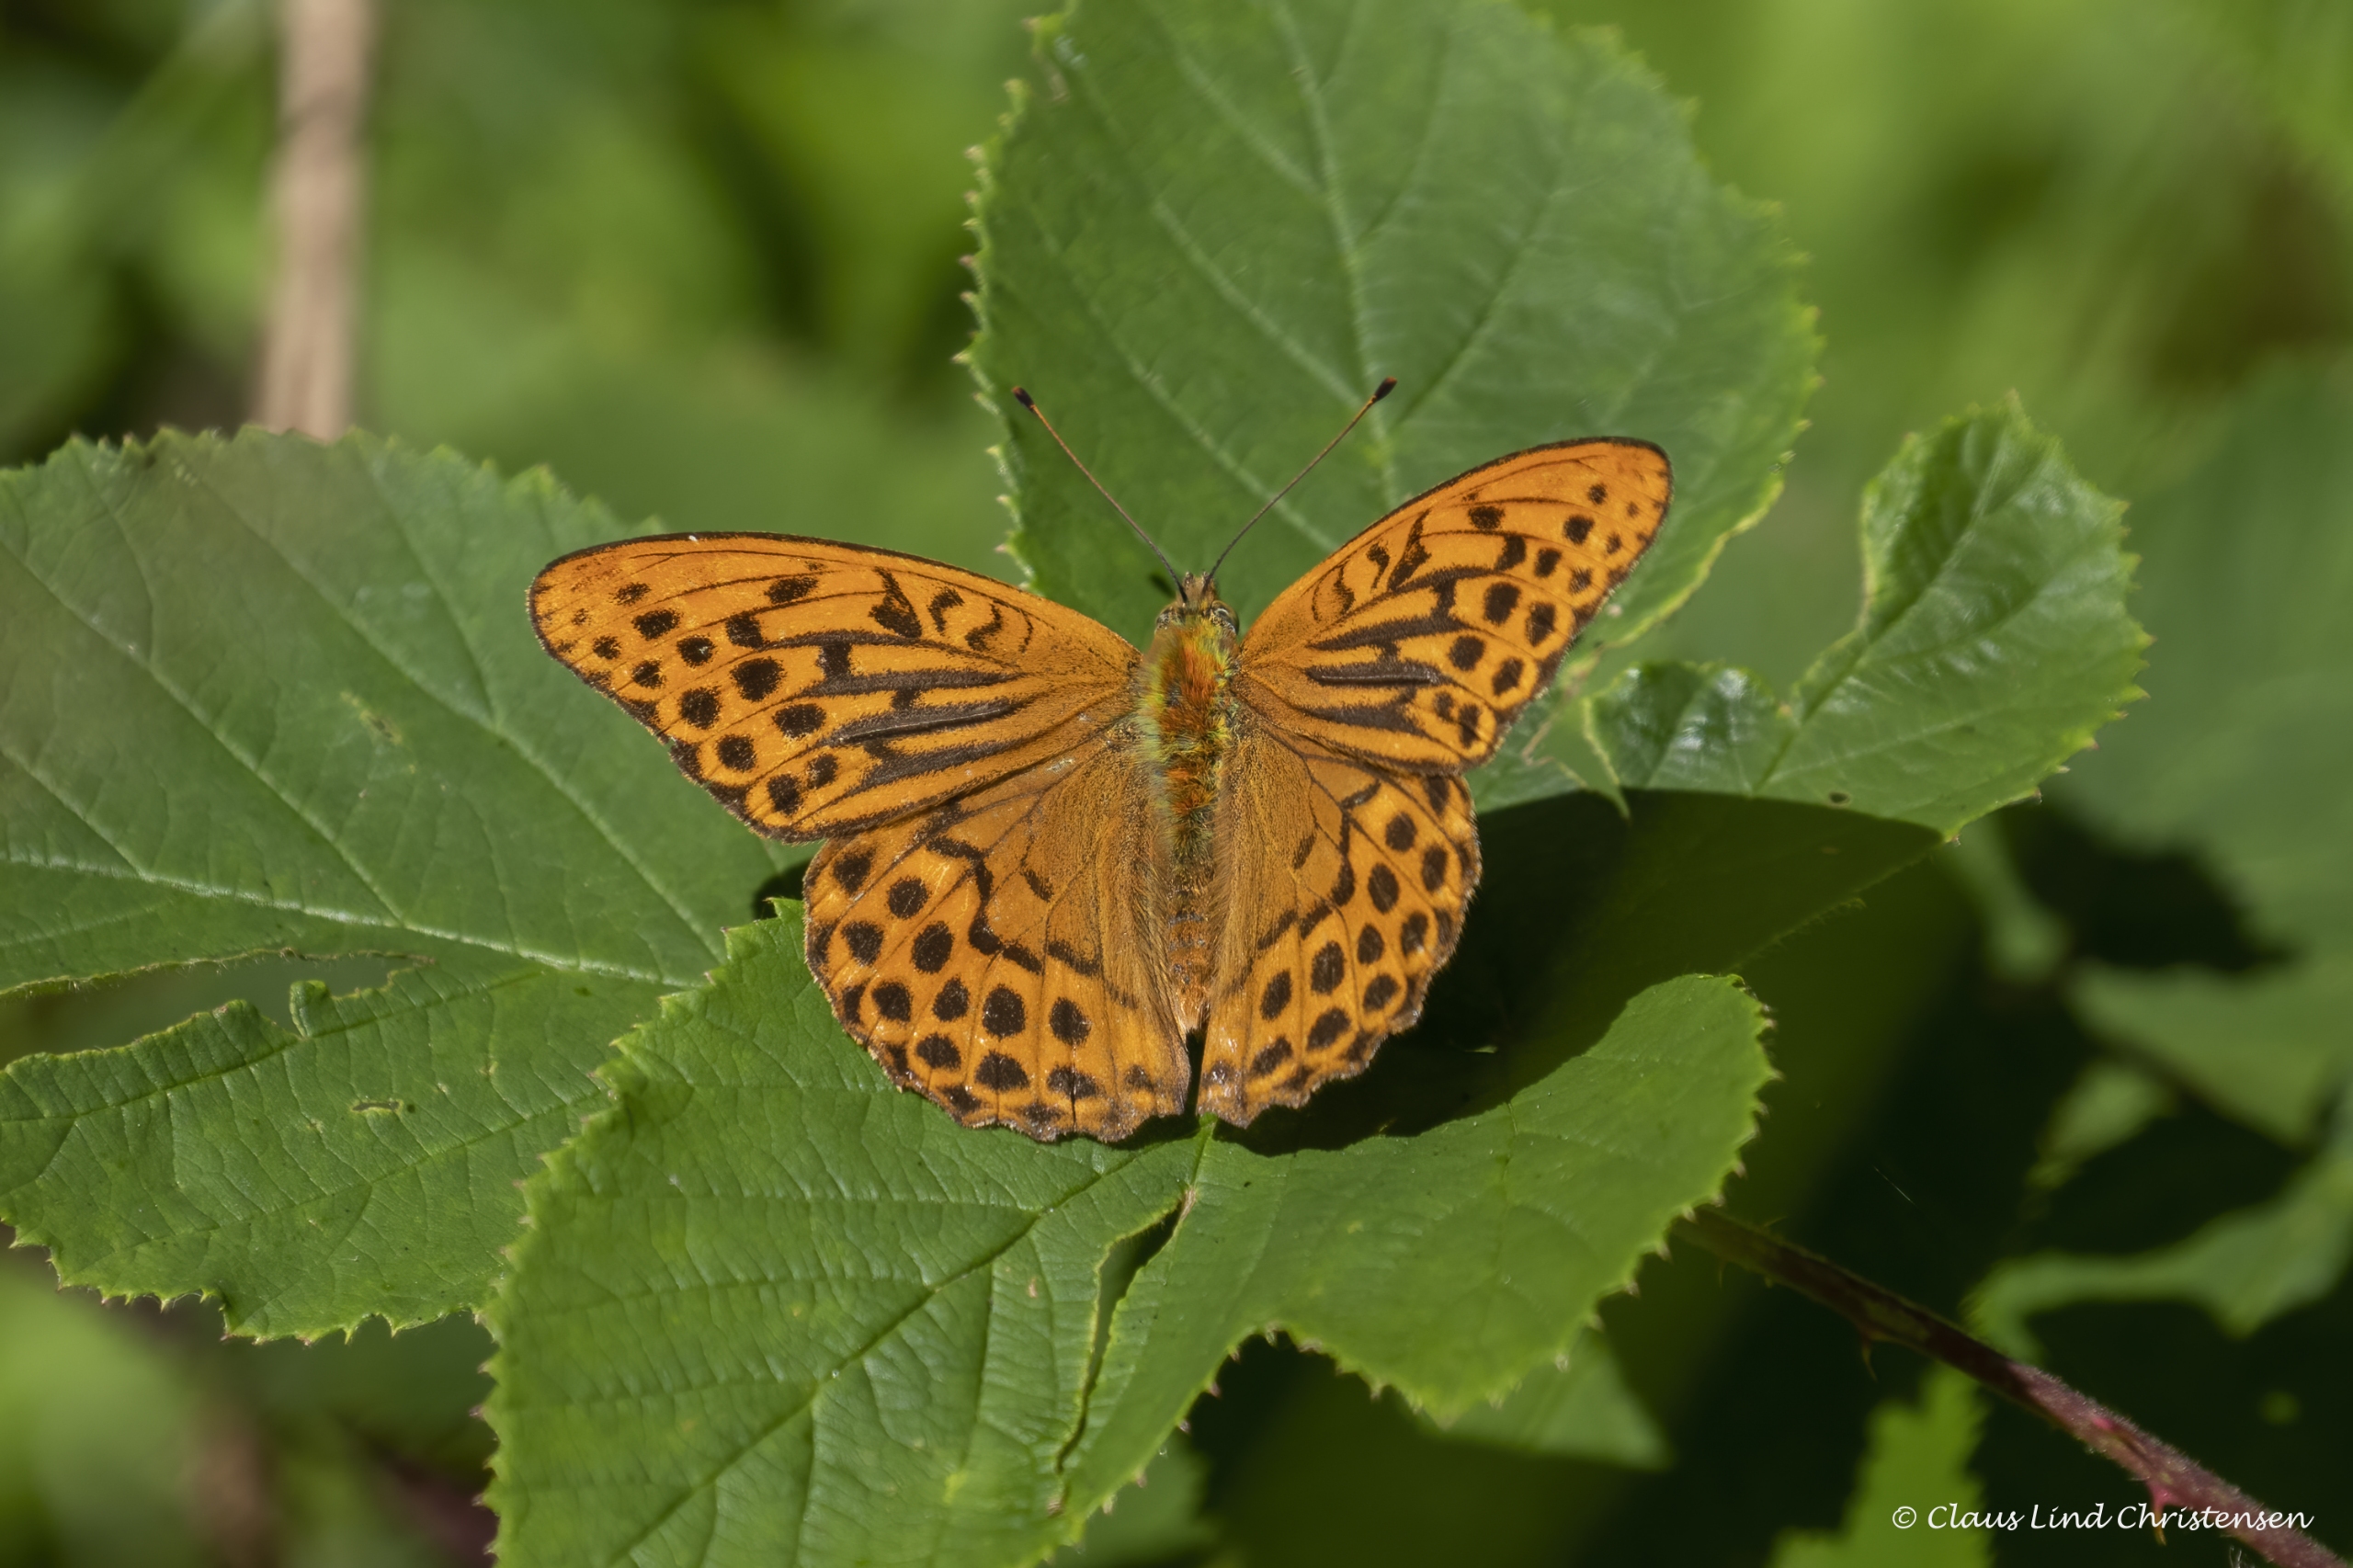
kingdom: Animalia
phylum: Arthropoda
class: Insecta
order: Lepidoptera
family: Nymphalidae
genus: Argynnis
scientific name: Argynnis paphia
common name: Kejserkåbe
